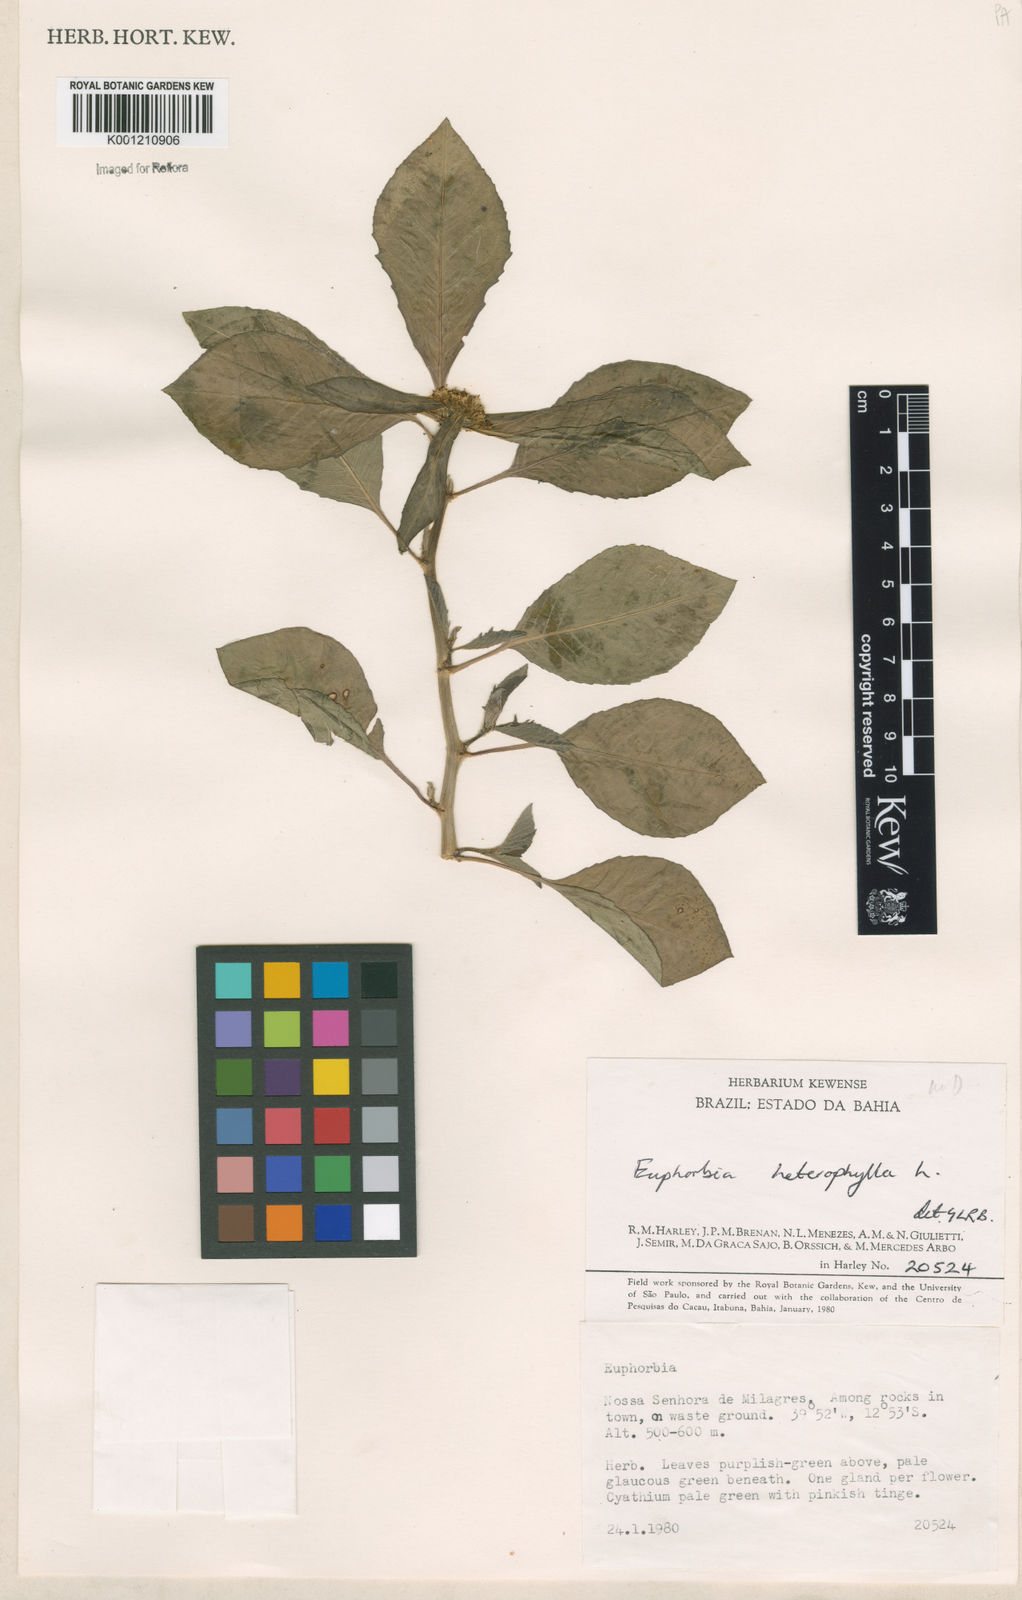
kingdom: Plantae
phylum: Tracheophyta
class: Magnoliopsida
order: Malpighiales
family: Euphorbiaceae
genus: Euphorbia
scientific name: Euphorbia heterophylla
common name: Mexican fireplant
